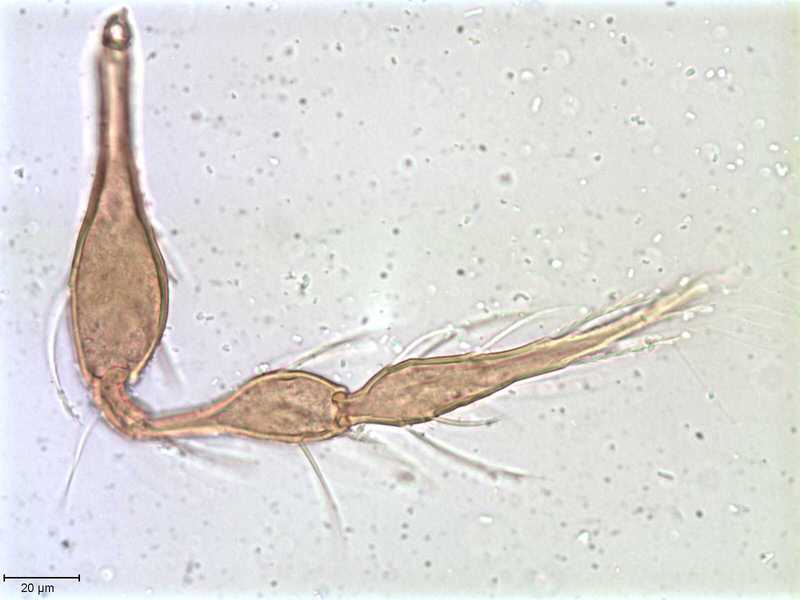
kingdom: Animalia
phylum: Arthropoda
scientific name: Arthropoda
